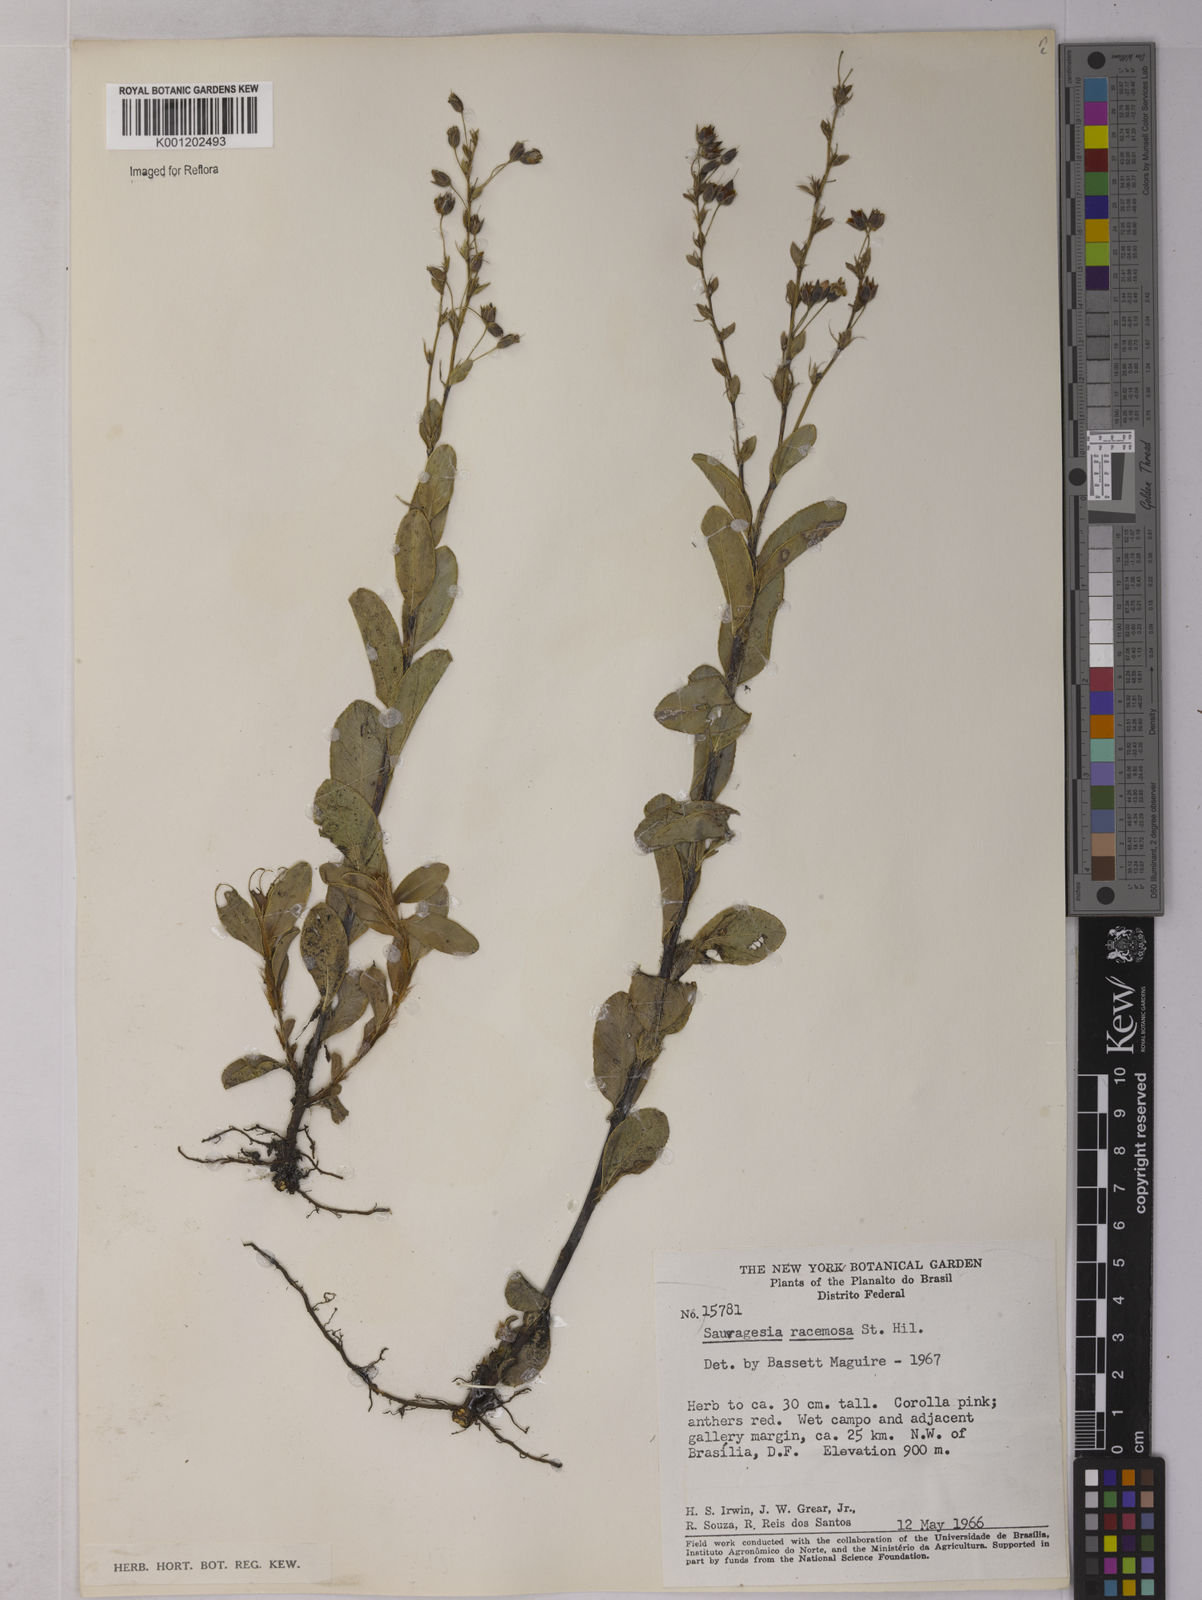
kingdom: Plantae
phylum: Tracheophyta
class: Magnoliopsida
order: Malpighiales
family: Ochnaceae
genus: Sauvagesia
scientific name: Sauvagesia racemosa
